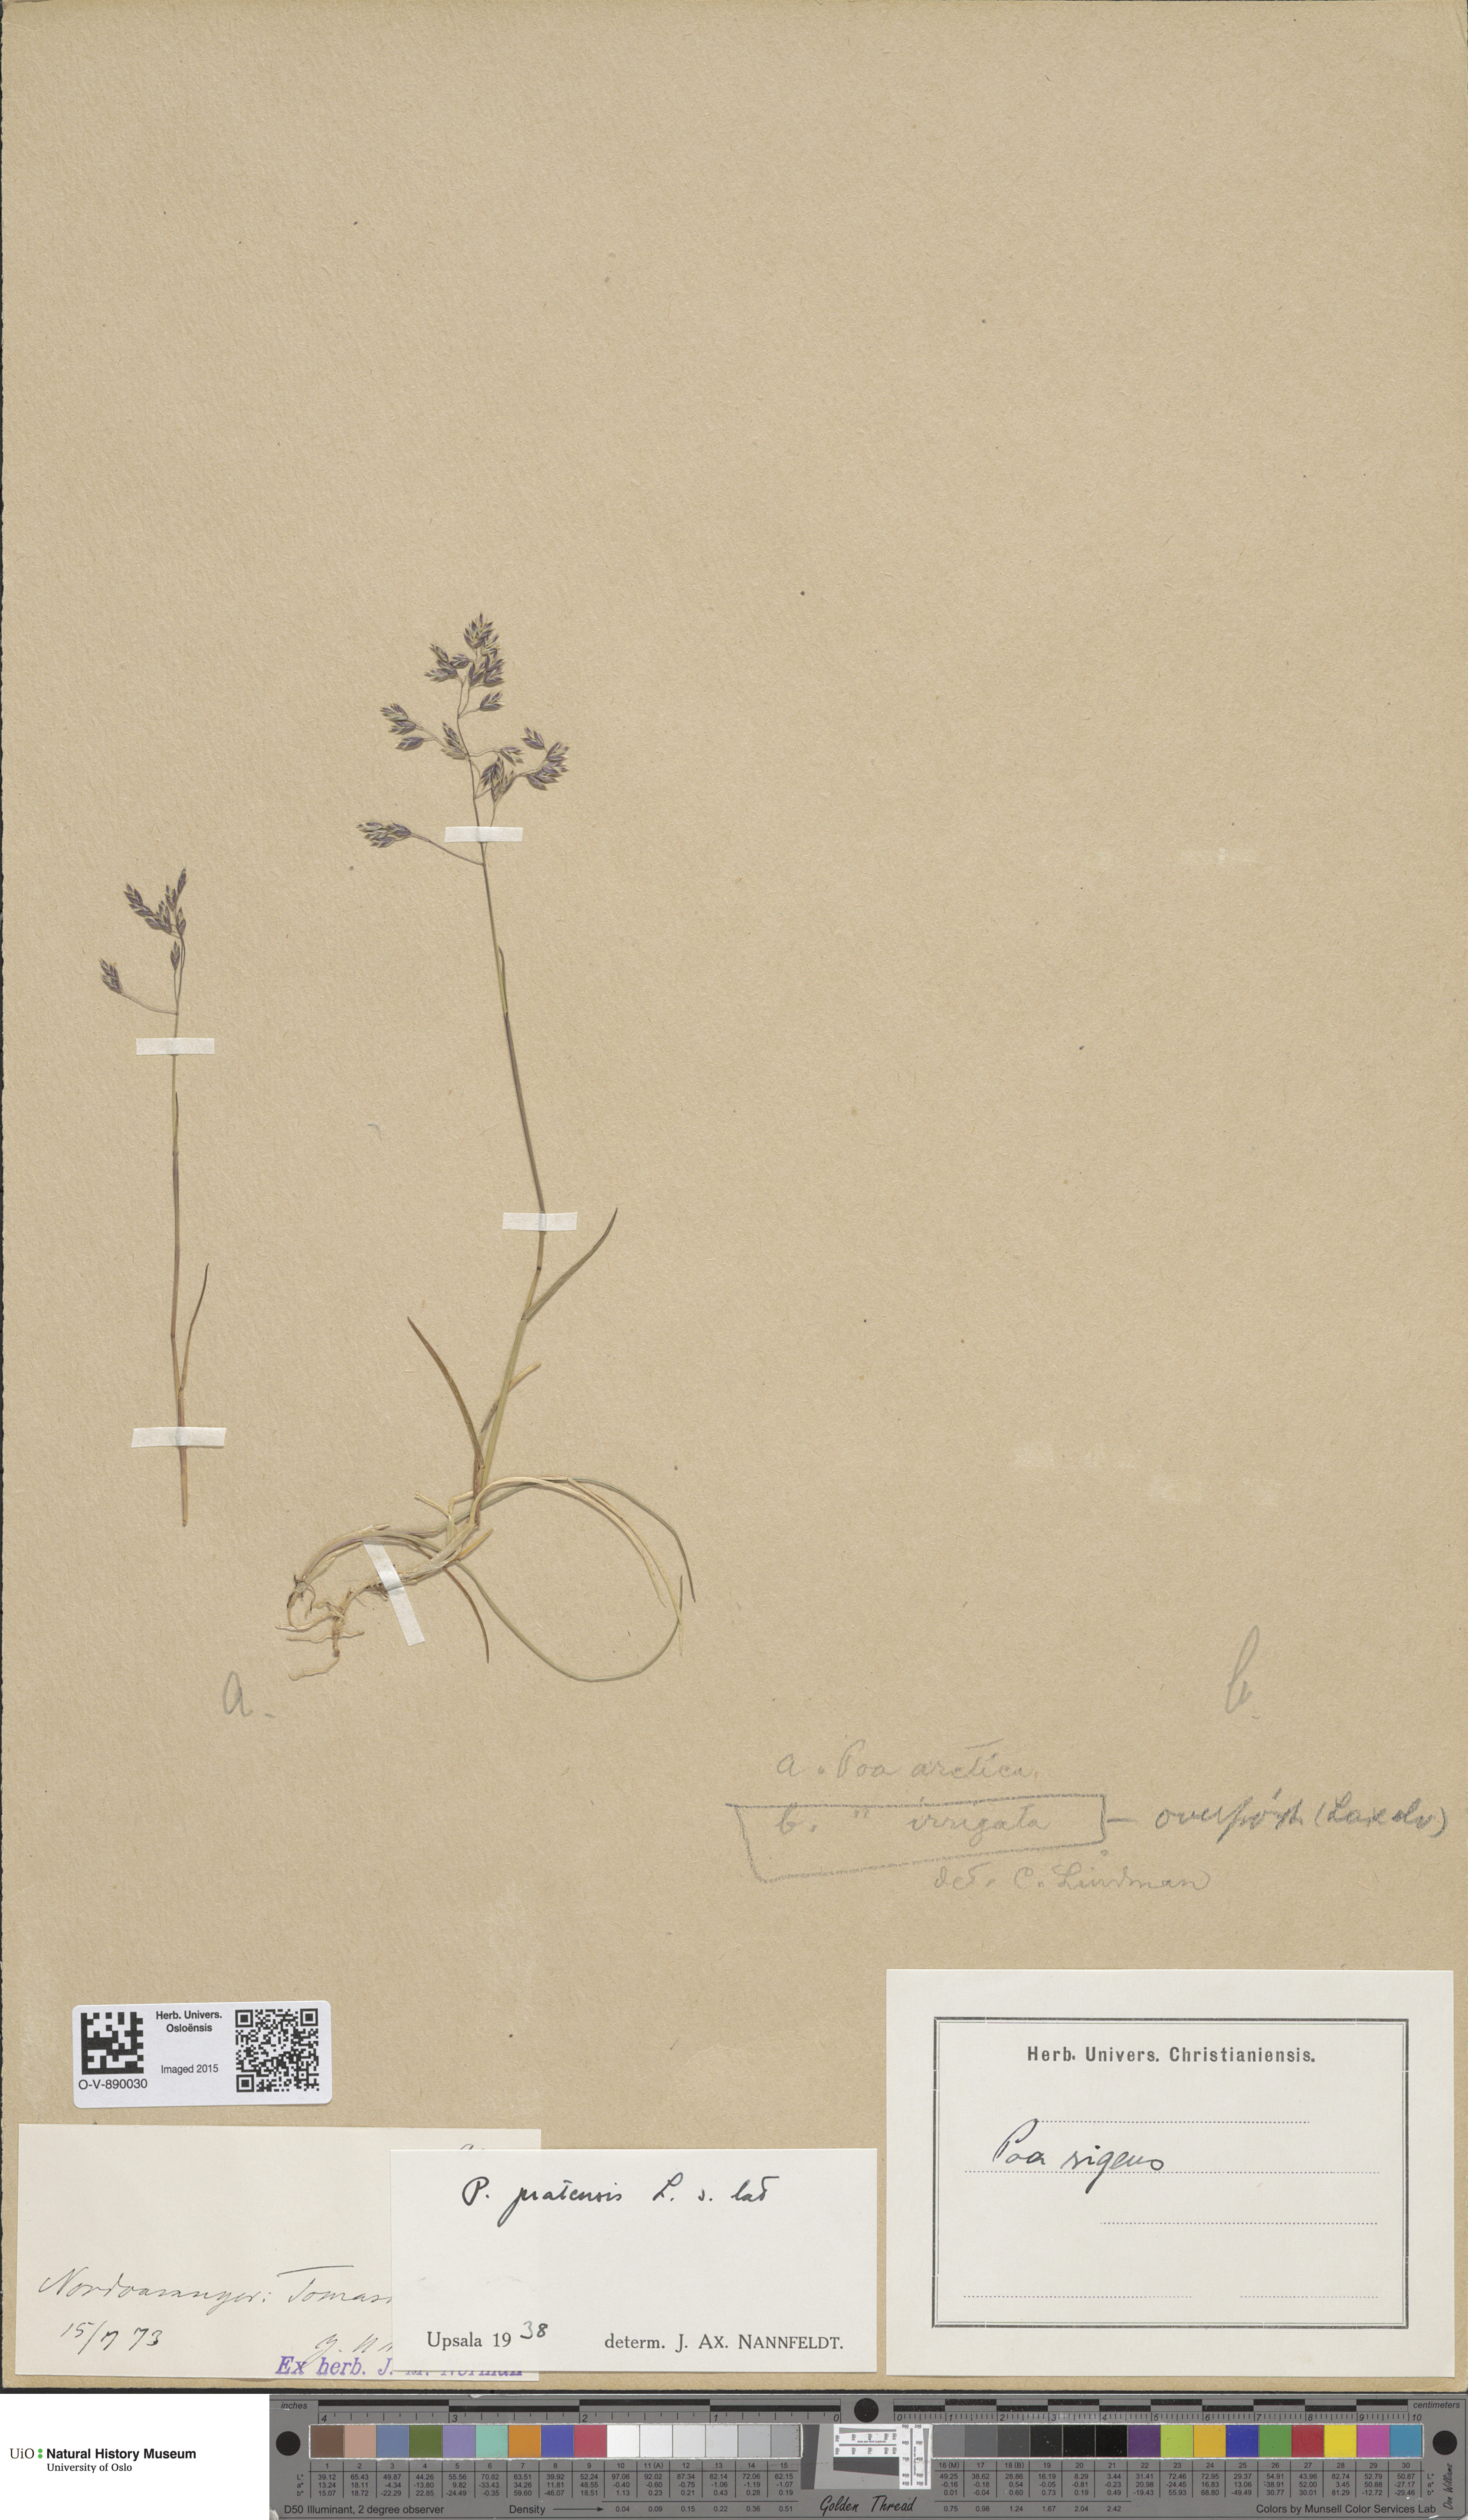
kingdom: Plantae
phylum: Tracheophyta
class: Liliopsida
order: Poales
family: Poaceae
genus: Poa
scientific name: Poa pratensis
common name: Kentucky bluegrass
